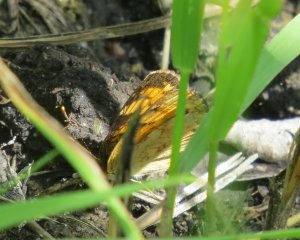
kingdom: Animalia
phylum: Arthropoda
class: Insecta
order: Lepidoptera
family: Nymphalidae
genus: Phyciodes
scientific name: Phyciodes tharos
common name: Northern Crescent
